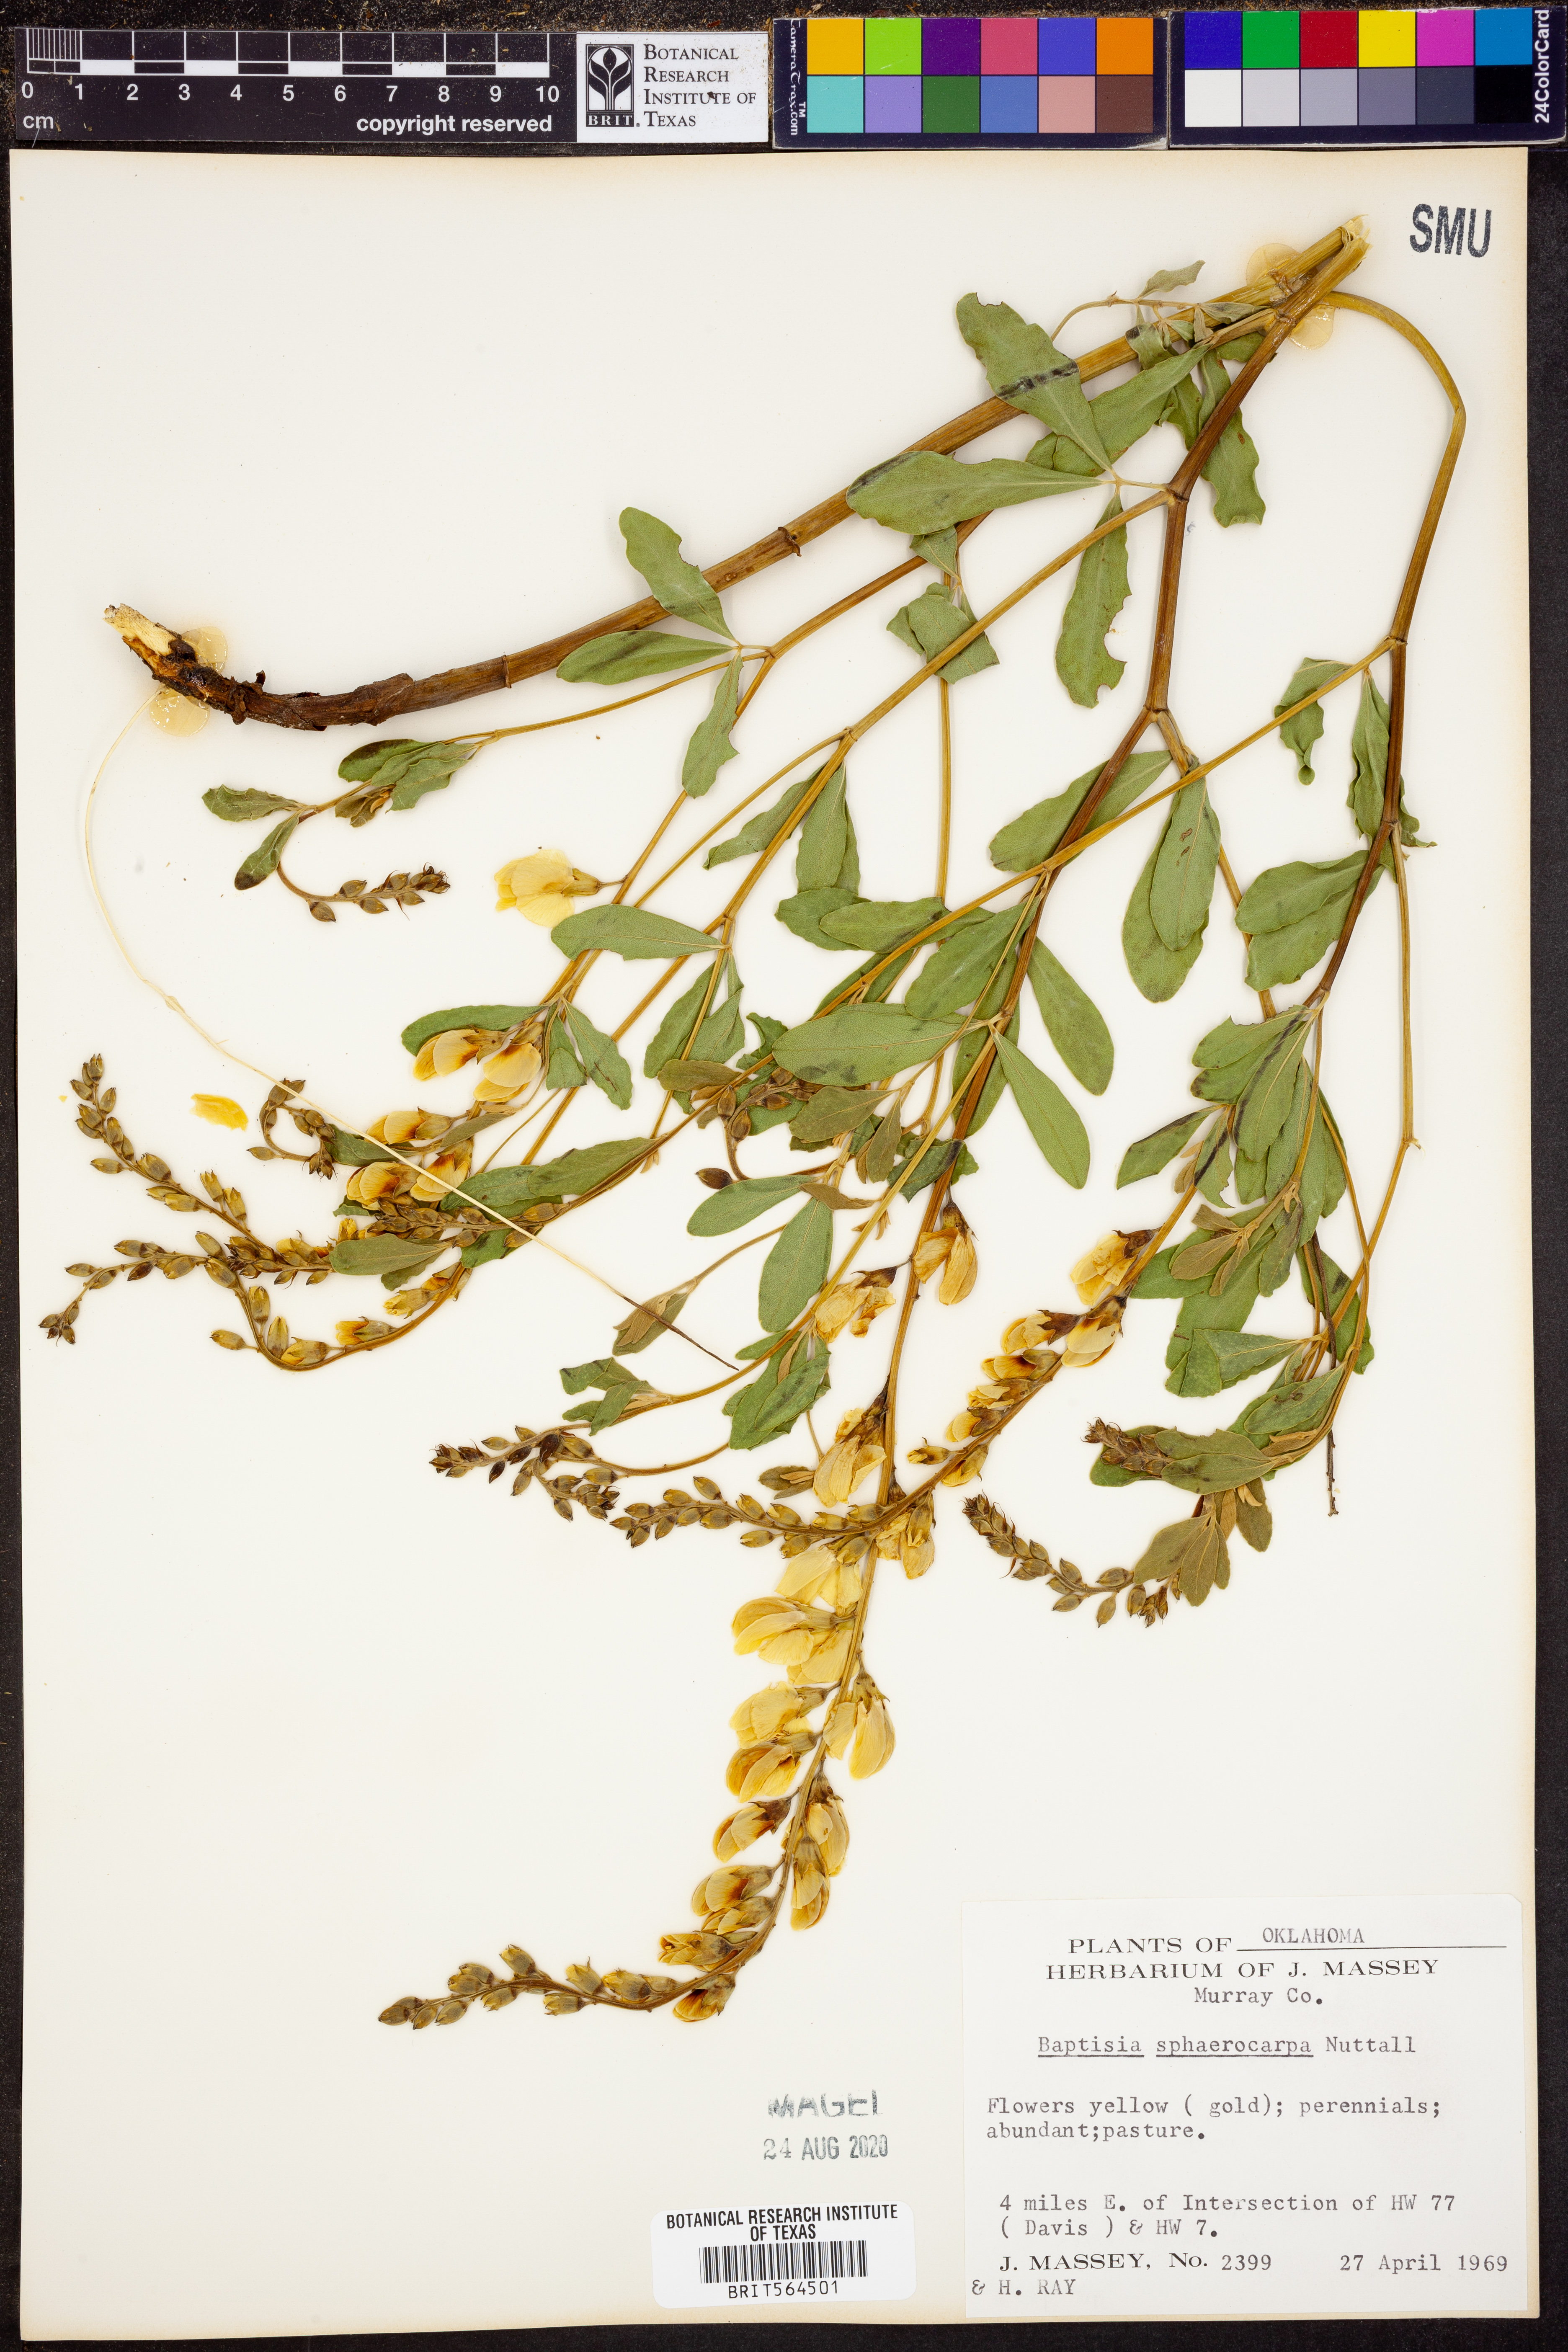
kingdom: Plantae
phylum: Tracheophyta
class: Magnoliopsida
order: Fabales
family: Fabaceae
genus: Baptisia
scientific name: Baptisia sphaerocarpa
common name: Round wild indigo
